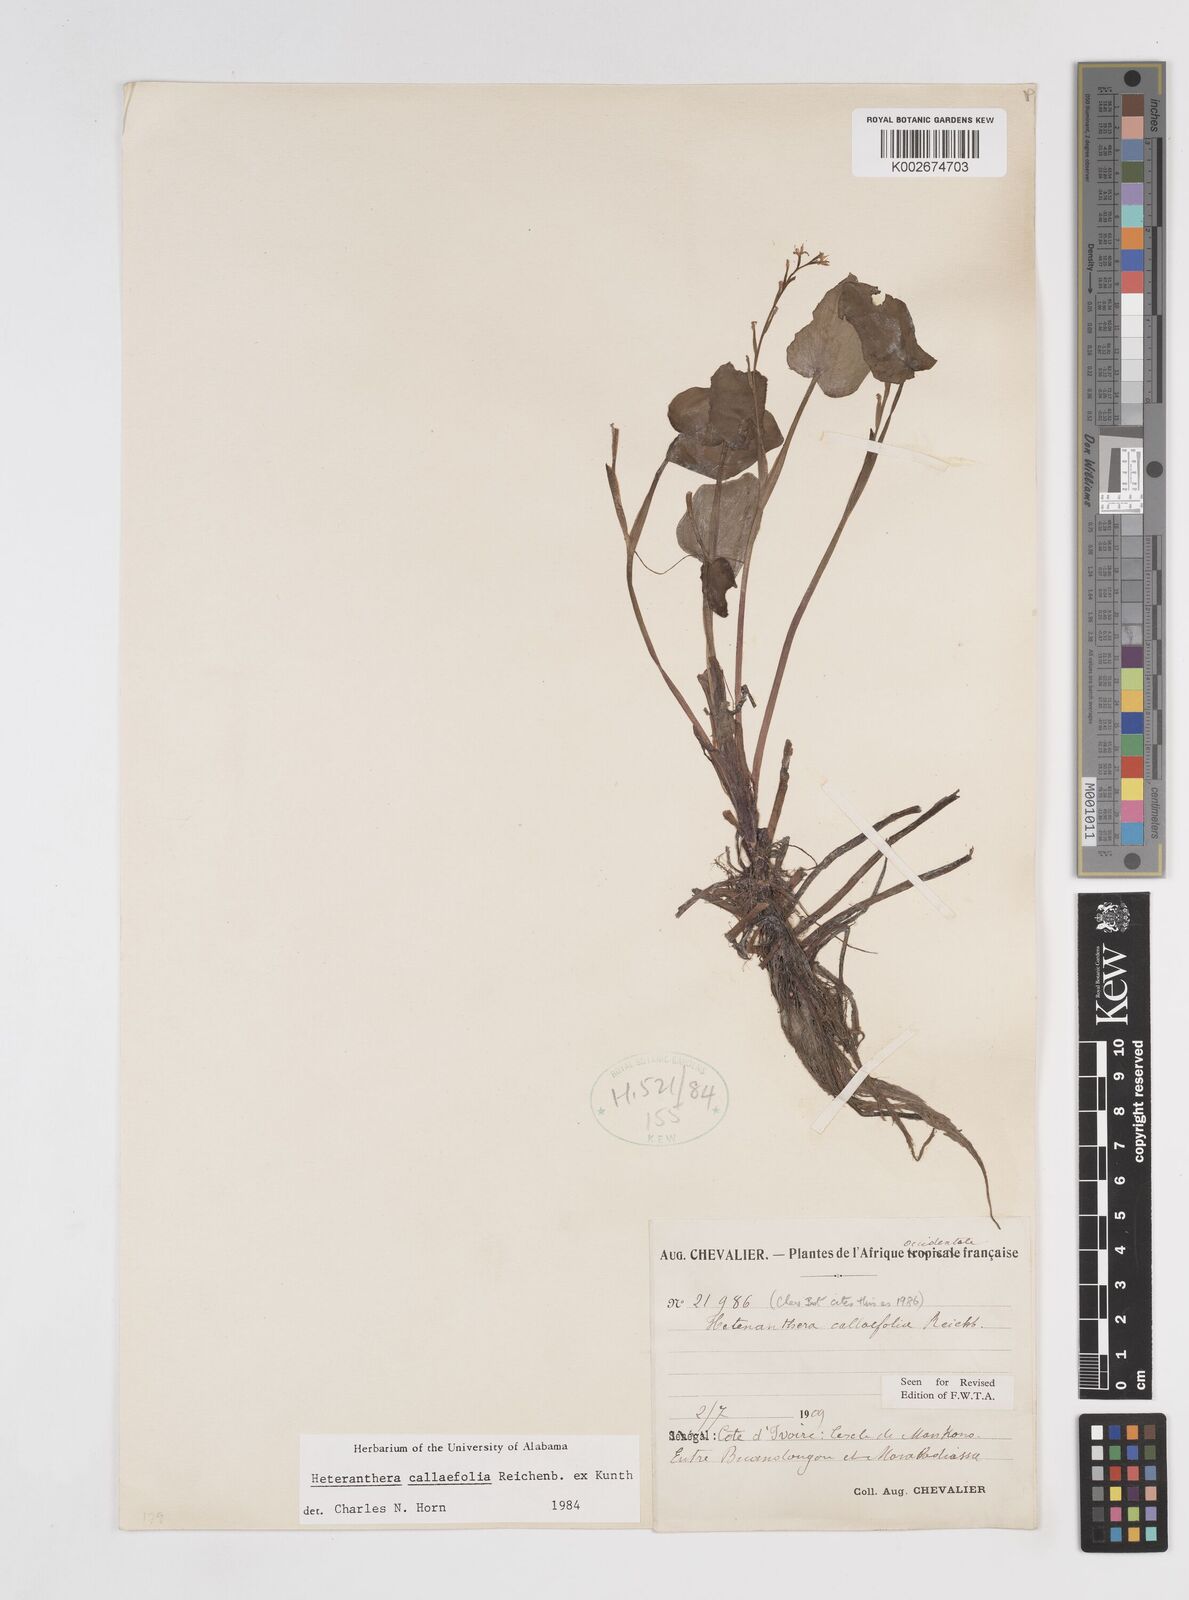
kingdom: Plantae
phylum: Tracheophyta
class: Liliopsida
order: Commelinales
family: Pontederiaceae
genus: Heteranthera
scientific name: Heteranthera callifolia
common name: Mud plantain
